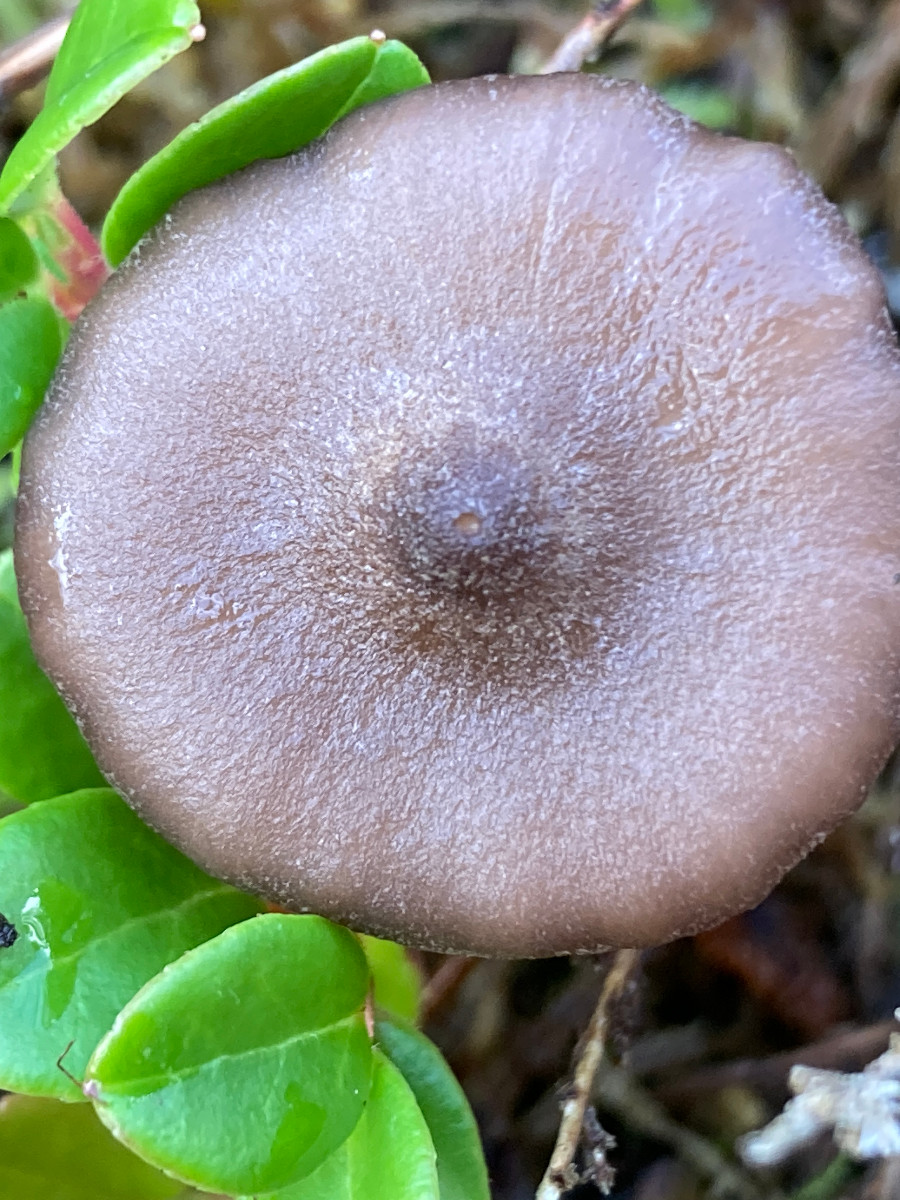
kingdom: Fungi
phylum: Basidiomycota
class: Agaricomycetes
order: Agaricales
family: Entolomataceae
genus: Entoloma
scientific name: Entoloma elodes
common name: mørkægget rødblad
